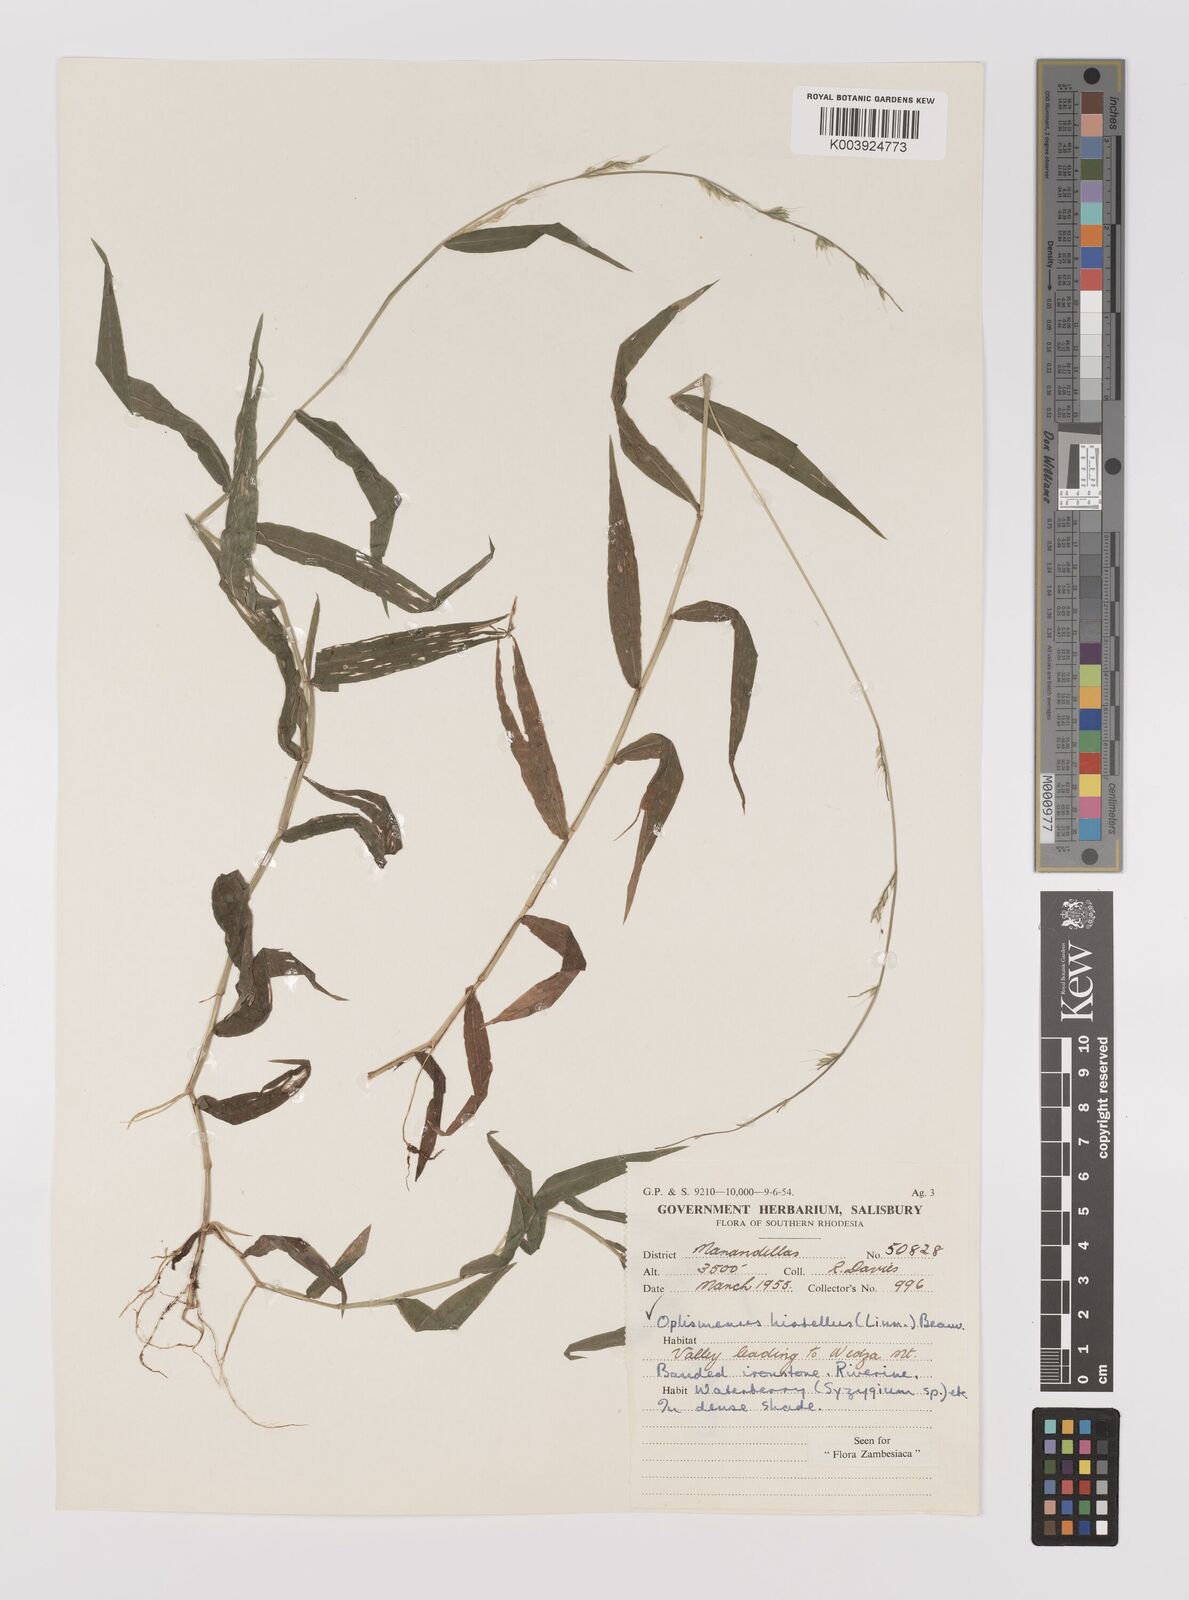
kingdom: Plantae
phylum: Tracheophyta
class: Liliopsida
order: Poales
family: Poaceae
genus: Oplismenus
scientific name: Oplismenus hirtellus
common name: Basketgrass
